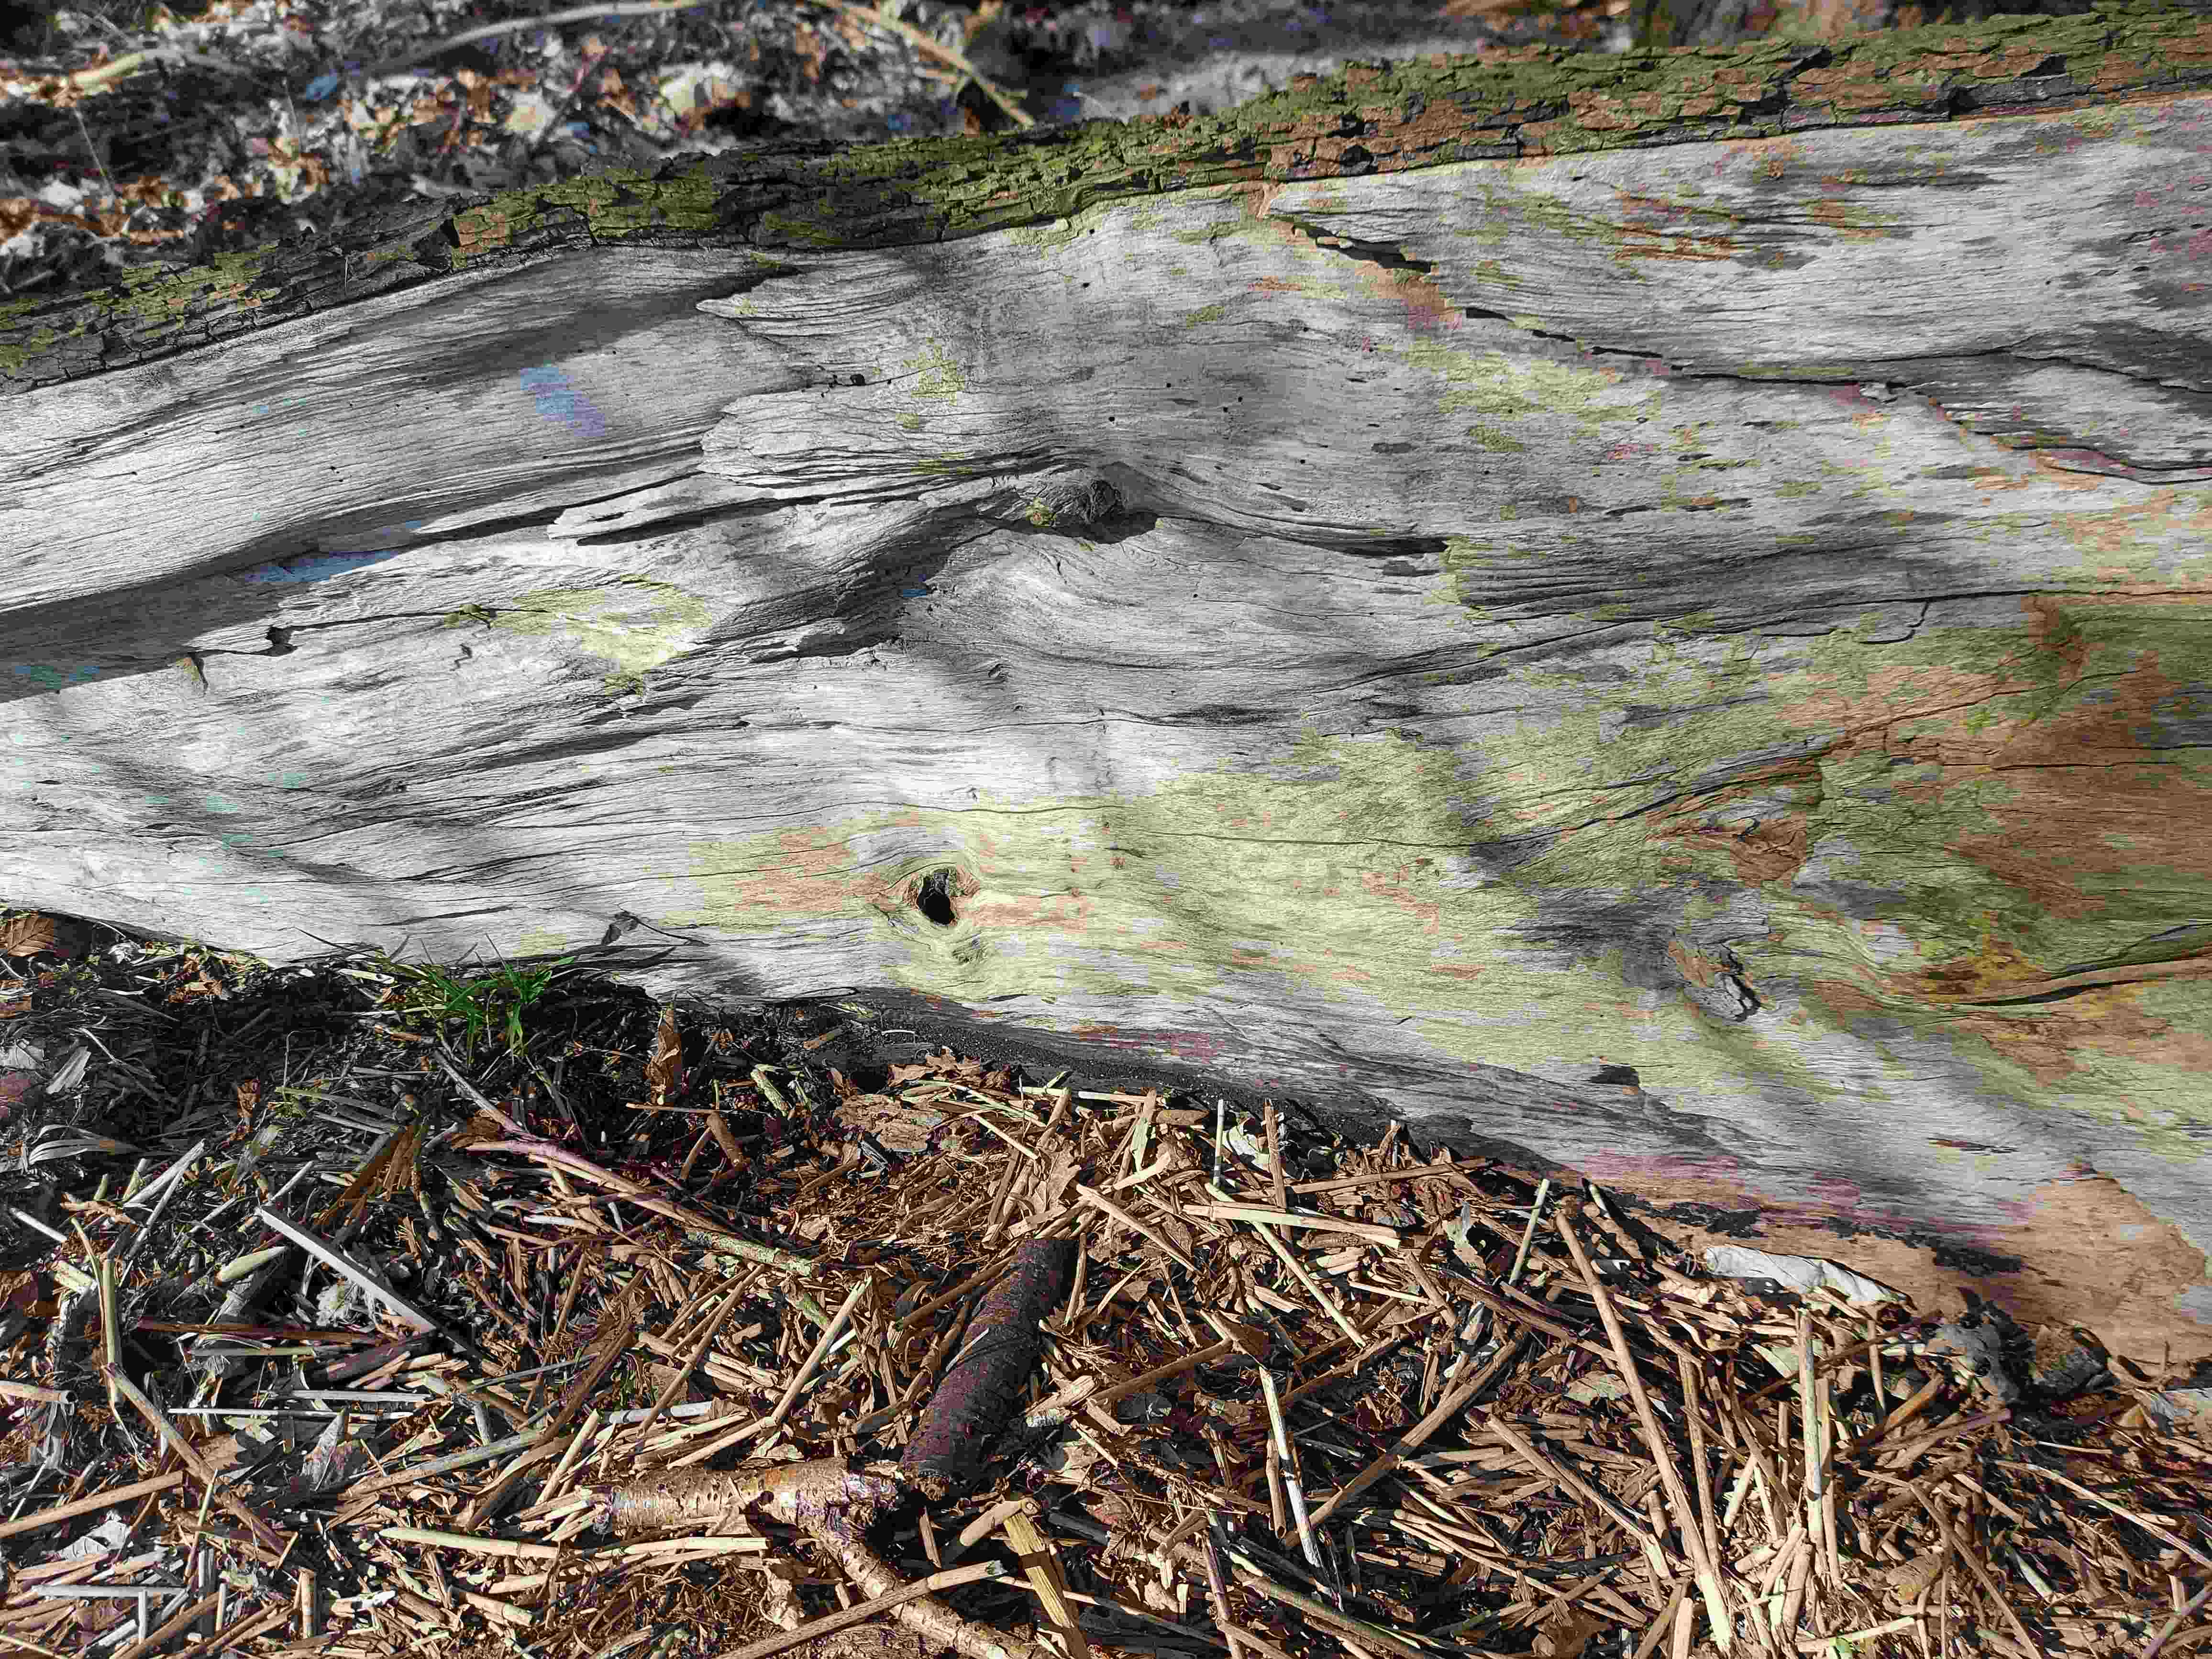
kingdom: Fungi
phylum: Ascomycota
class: Sordariomycetes
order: Xylariales
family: Hypoxylaceae
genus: Hypoxylon
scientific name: Hypoxylon
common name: kulbær
